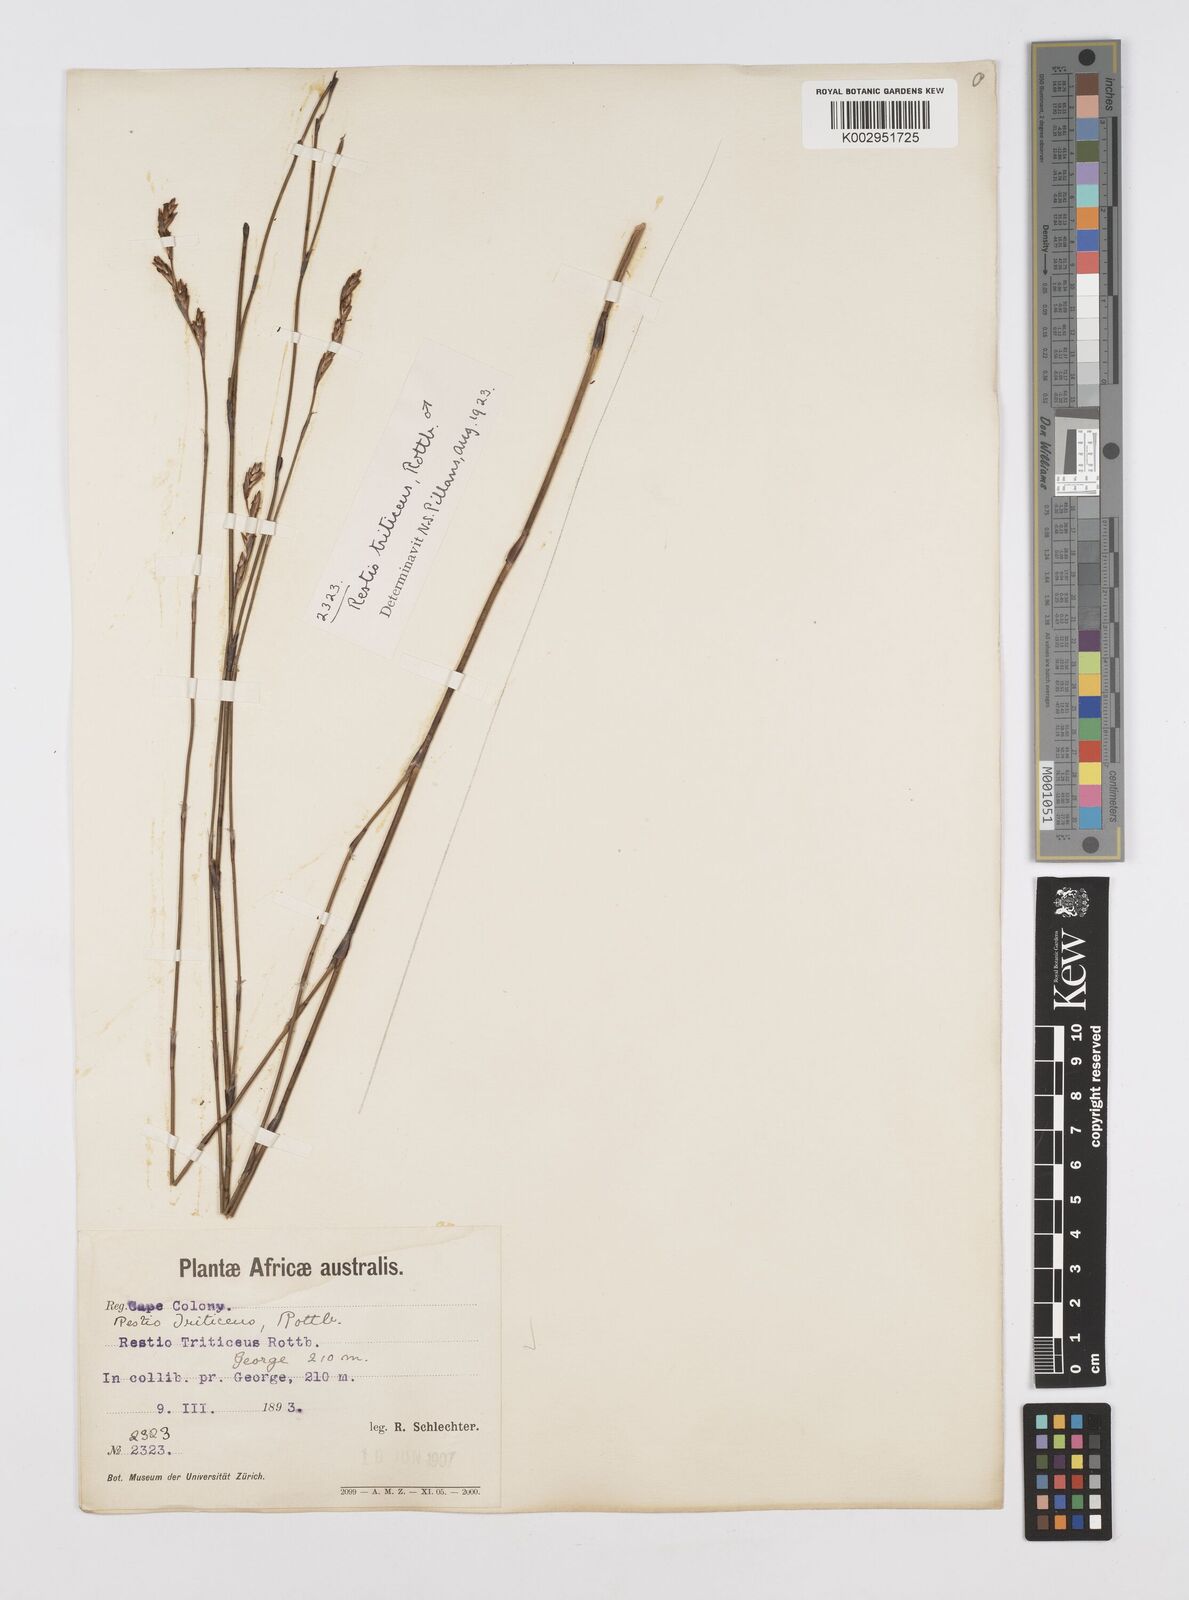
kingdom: Plantae
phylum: Tracheophyta
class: Liliopsida
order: Poales
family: Restionaceae
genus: Restio
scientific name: Restio triticeus
